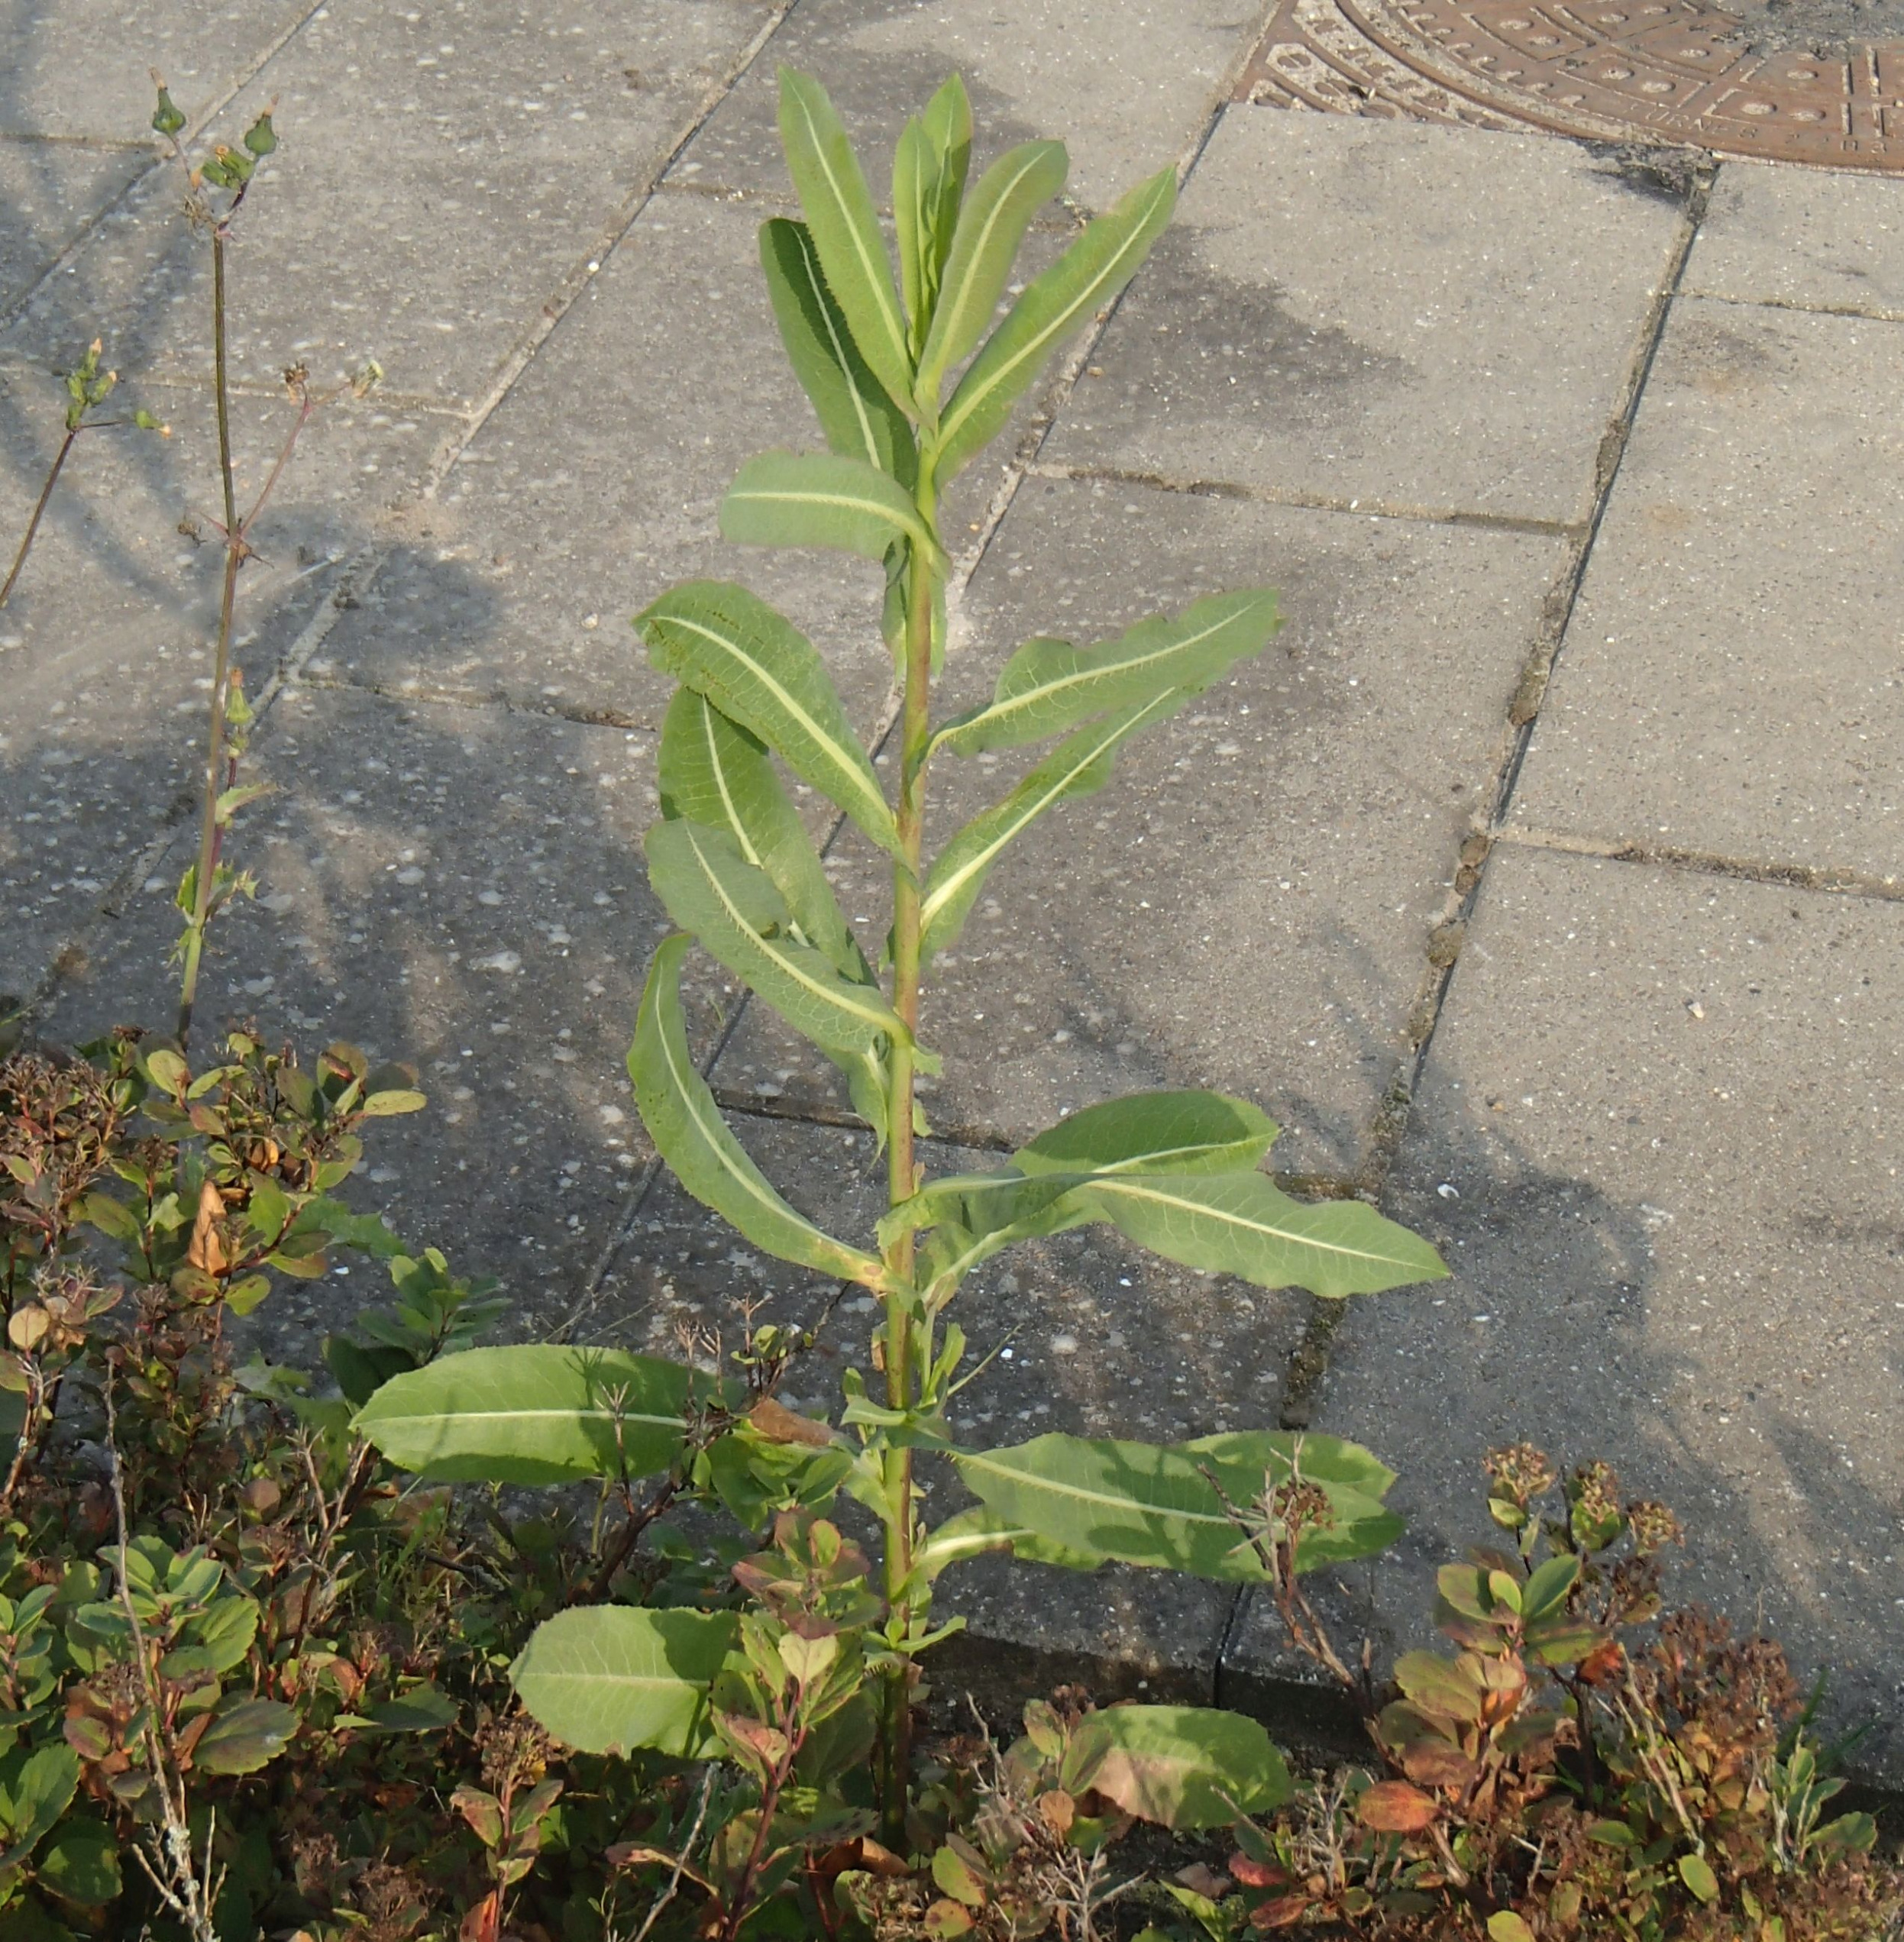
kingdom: Plantae
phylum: Tracheophyta
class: Magnoliopsida
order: Asterales
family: Asteraceae
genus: Lactuca
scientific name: Lactuca serriola
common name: Tornet salat
